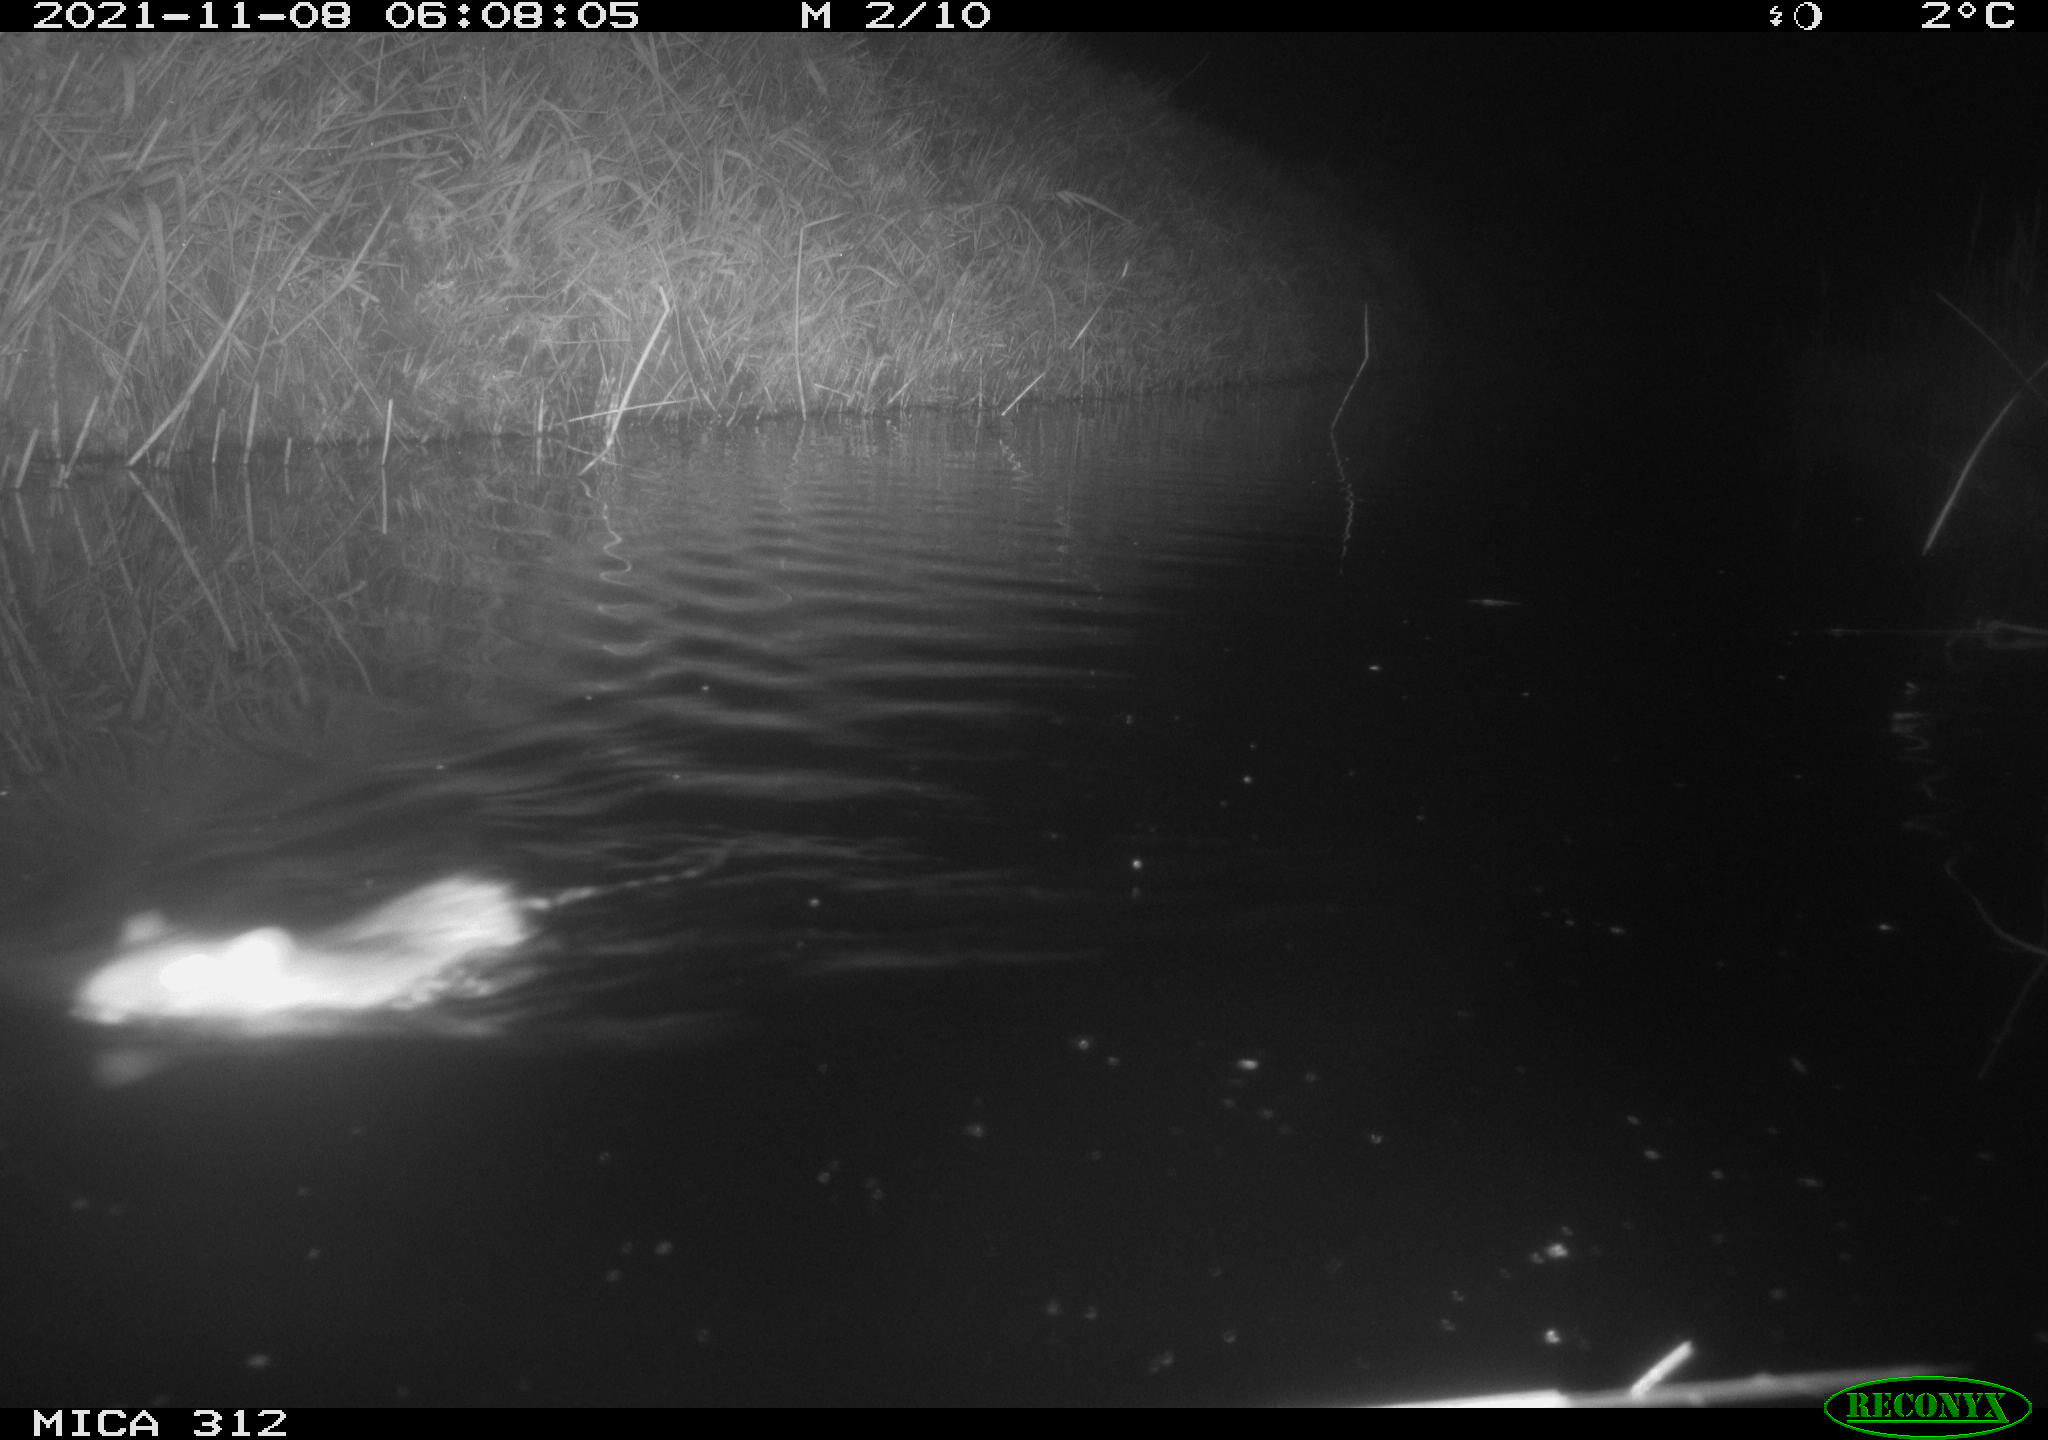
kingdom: Animalia
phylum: Chordata
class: Mammalia
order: Rodentia
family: Muridae
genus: Rattus
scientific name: Rattus norvegicus
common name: Brown rat
